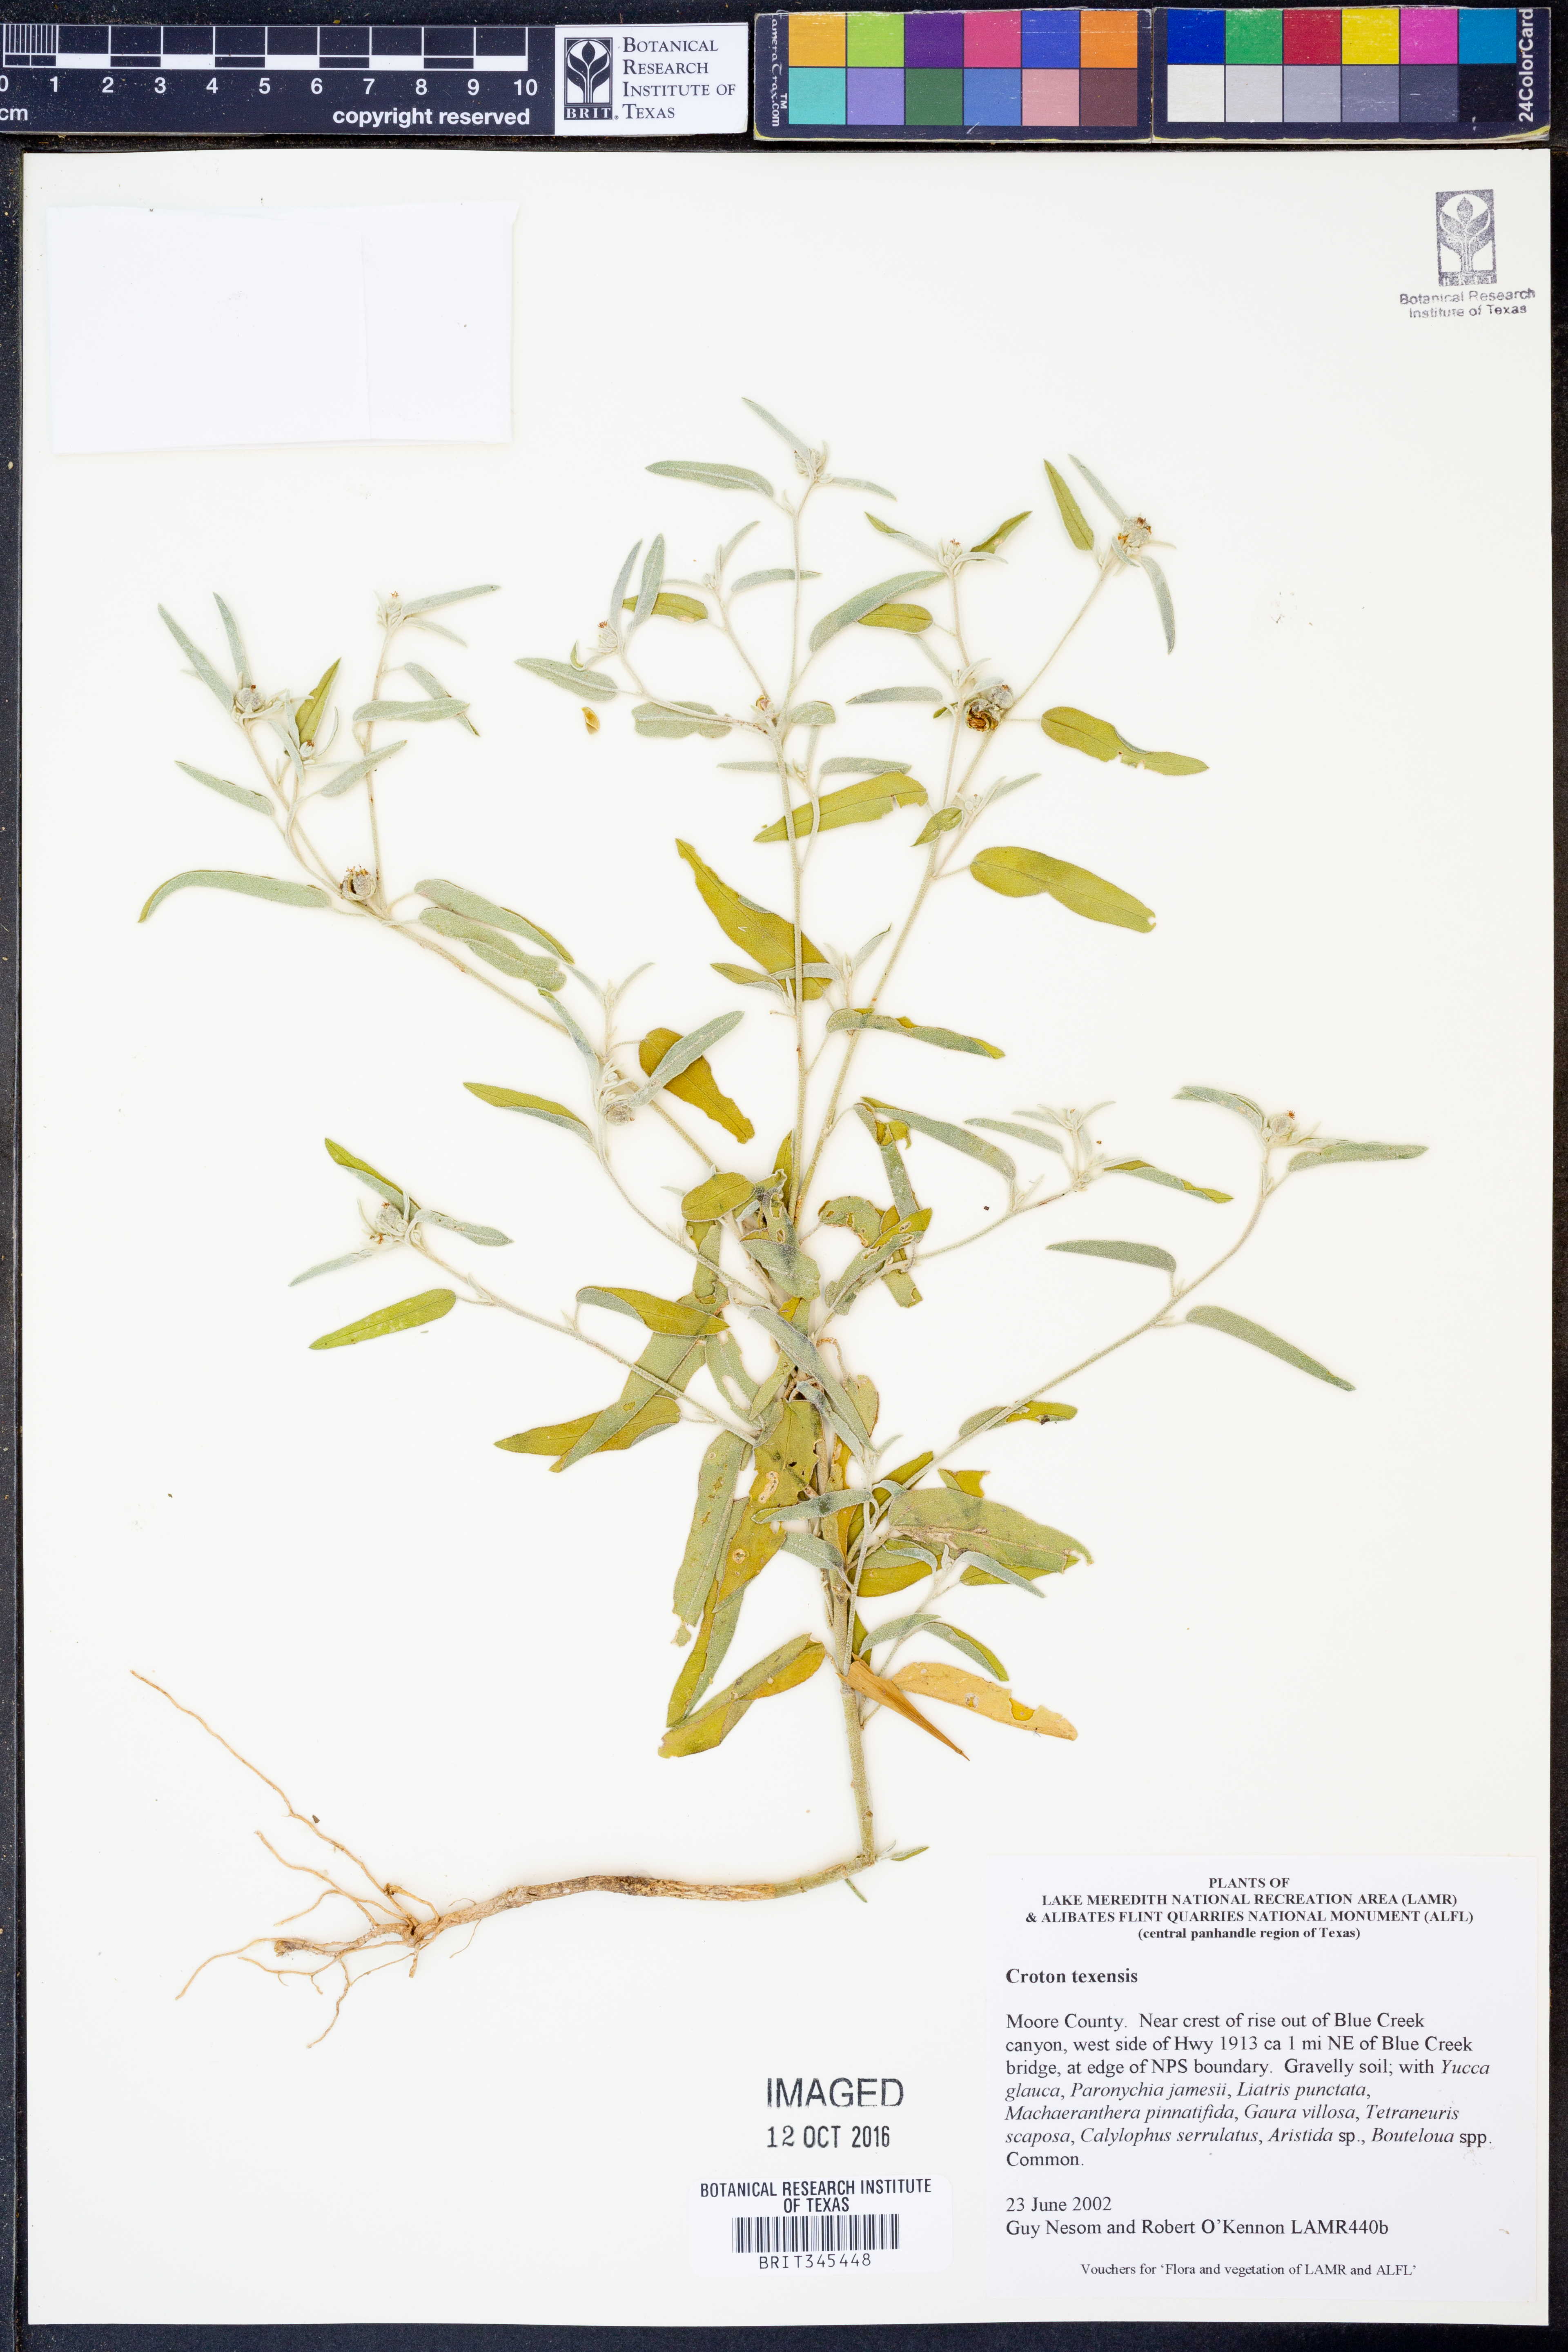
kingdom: Plantae
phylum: Tracheophyta
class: Magnoliopsida
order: Malpighiales
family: Euphorbiaceae
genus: Croton
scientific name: Croton texensis
